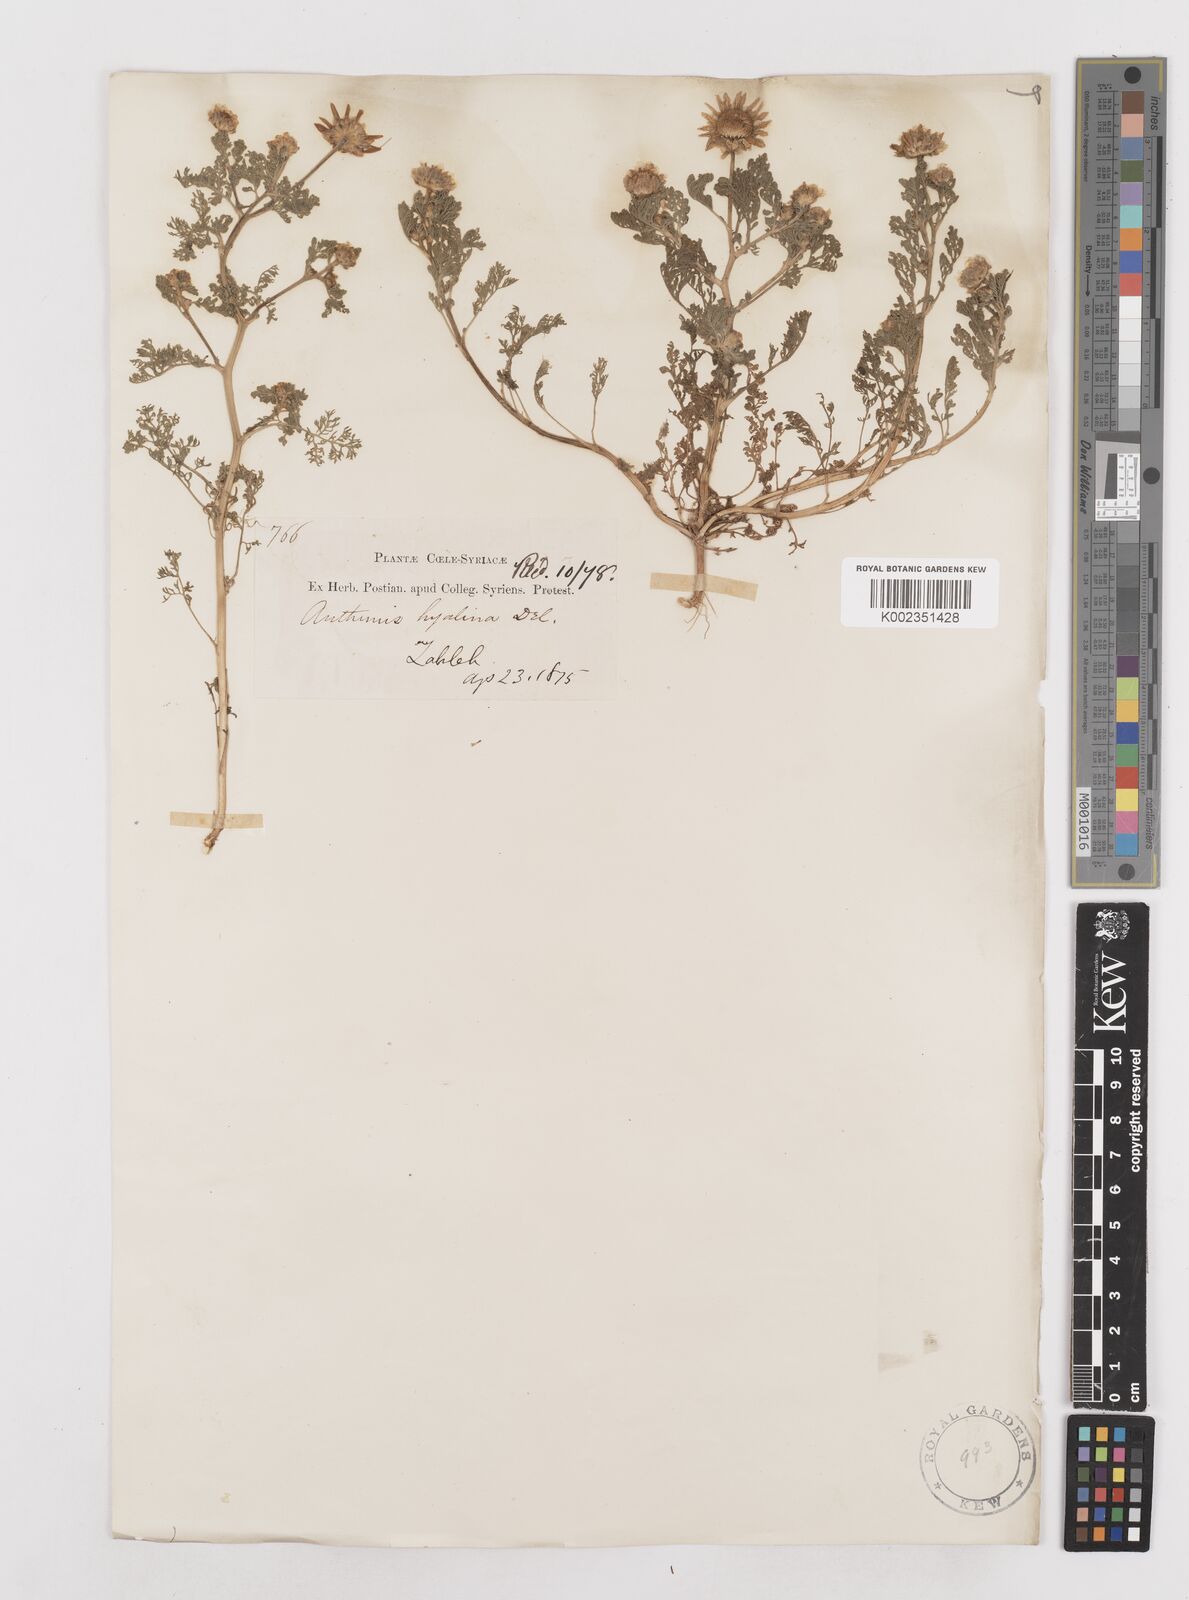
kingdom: Plantae
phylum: Tracheophyta
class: Magnoliopsida
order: Asterales
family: Asteraceae
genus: Anthemis
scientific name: Anthemis hyalina
